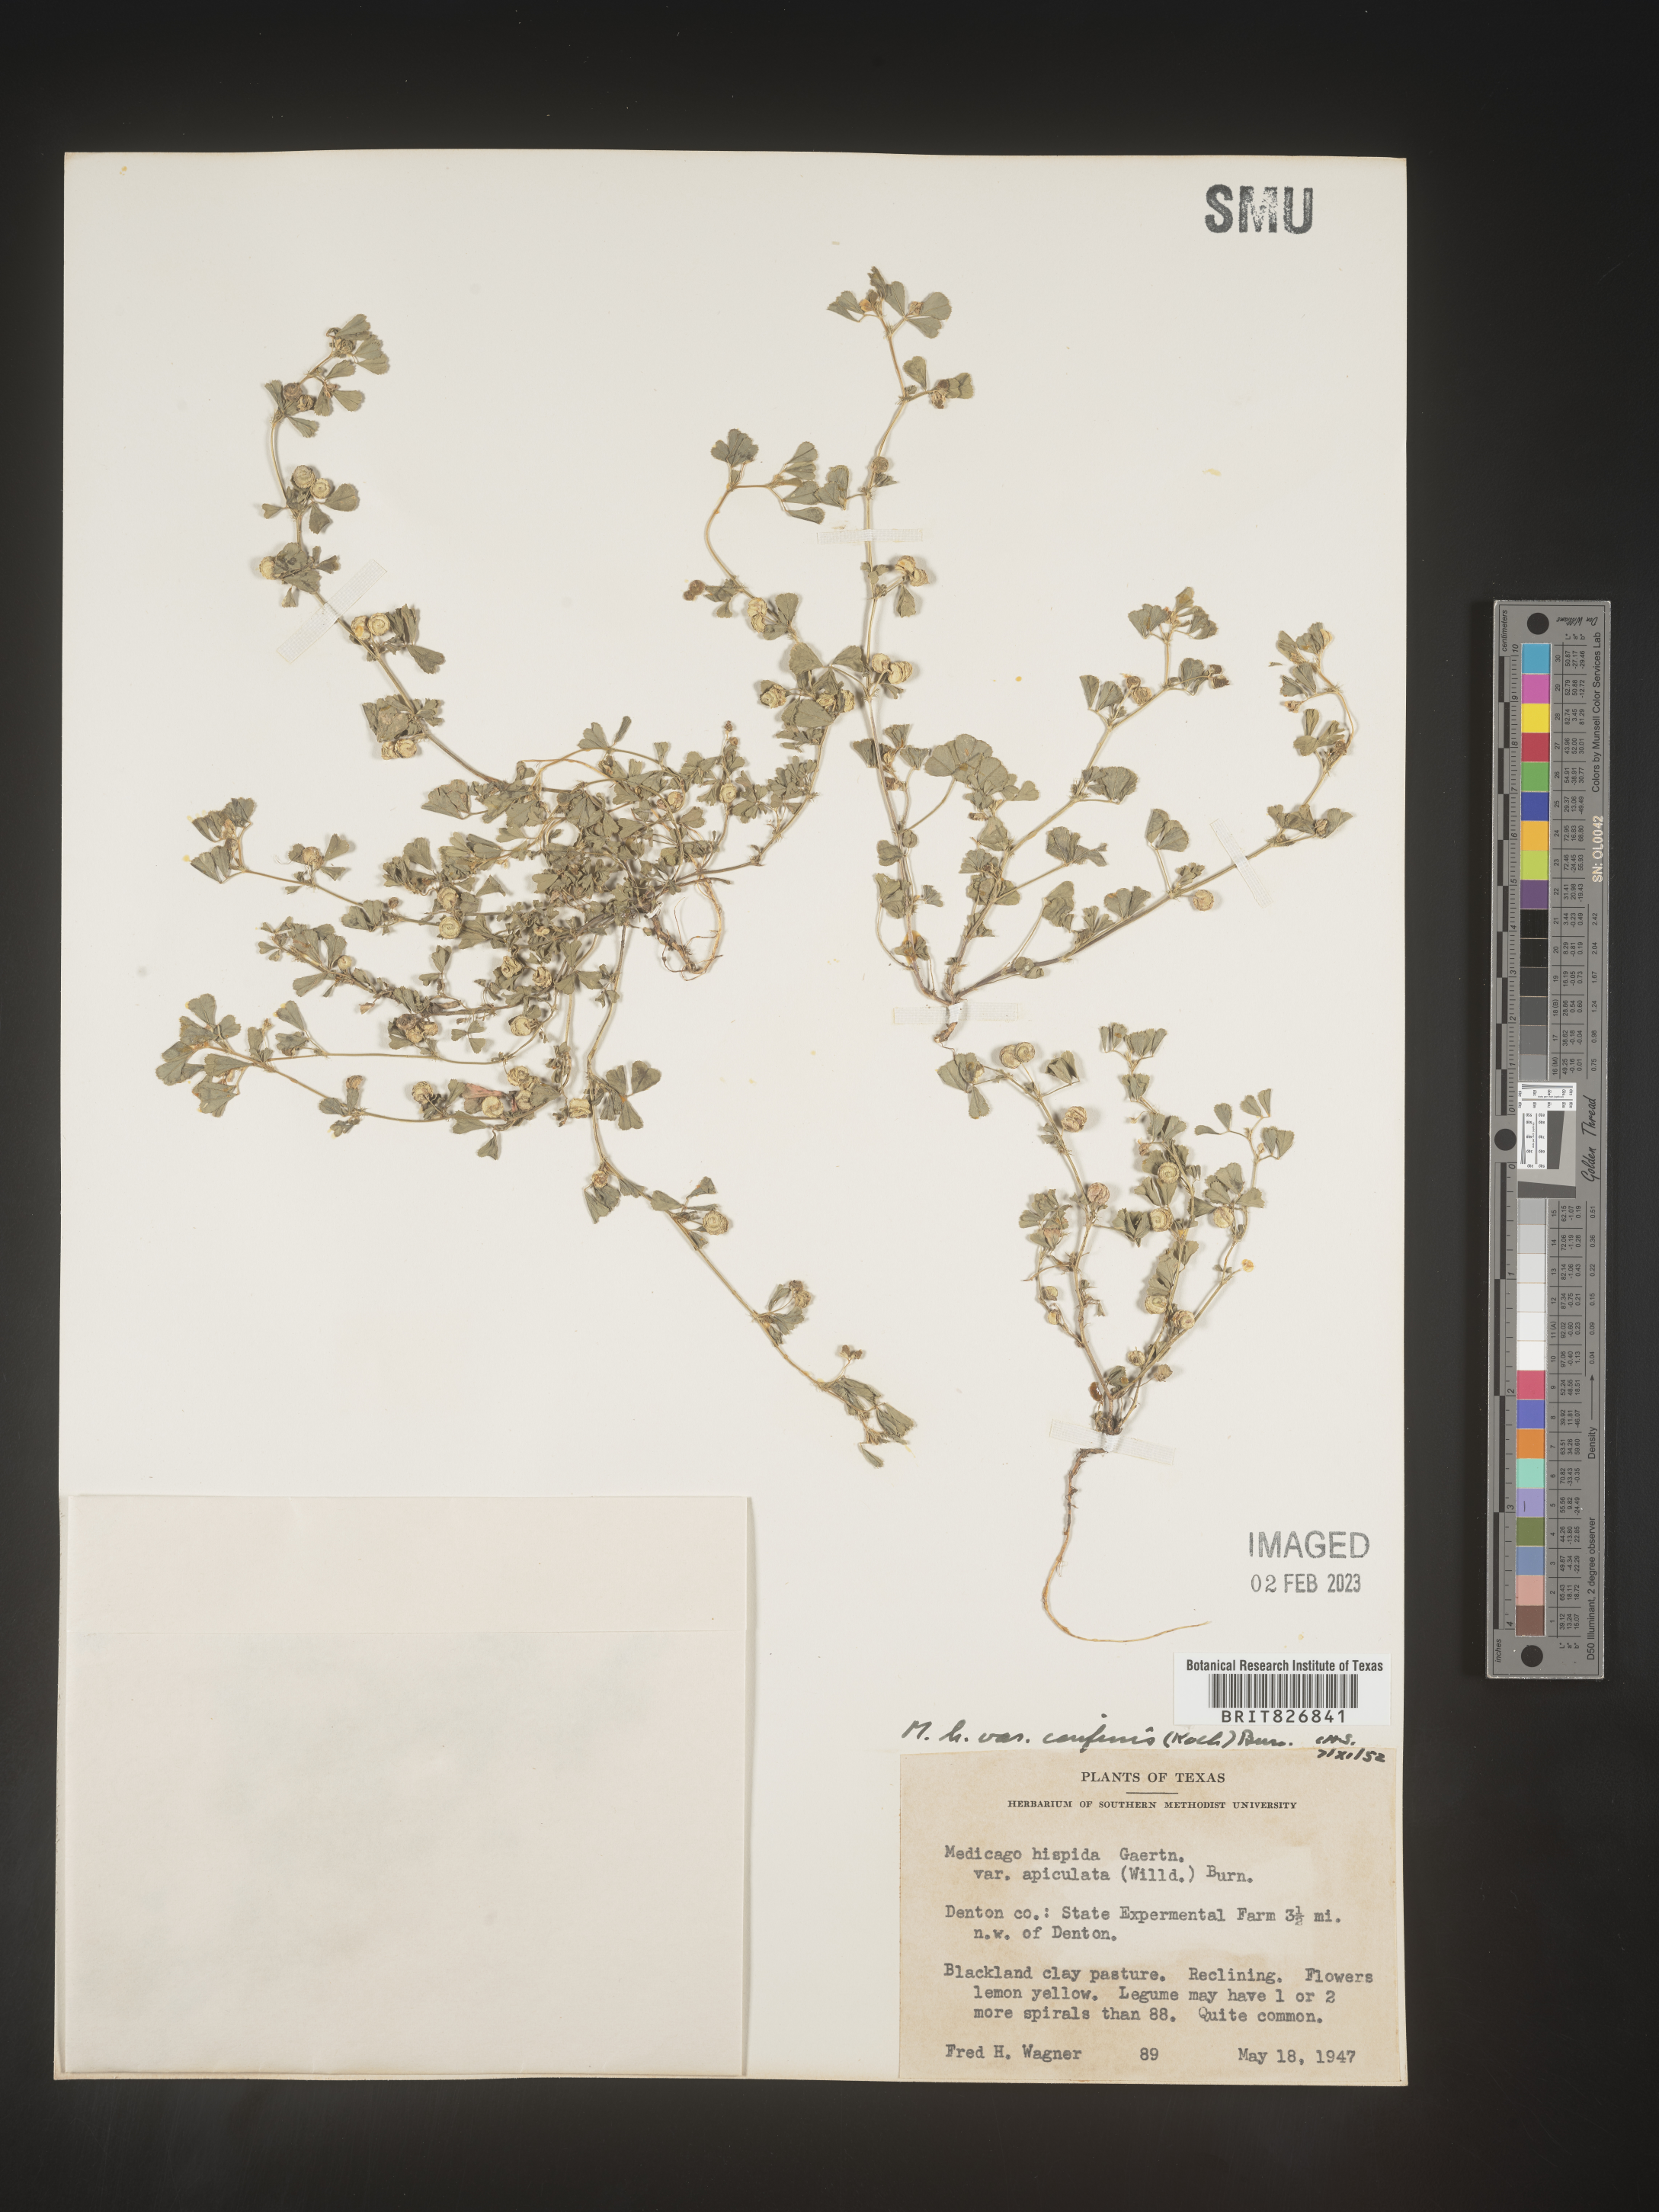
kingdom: Plantae
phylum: Tracheophyta
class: Magnoliopsida
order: Fabales
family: Fabaceae
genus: Medicago
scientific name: Medicago
